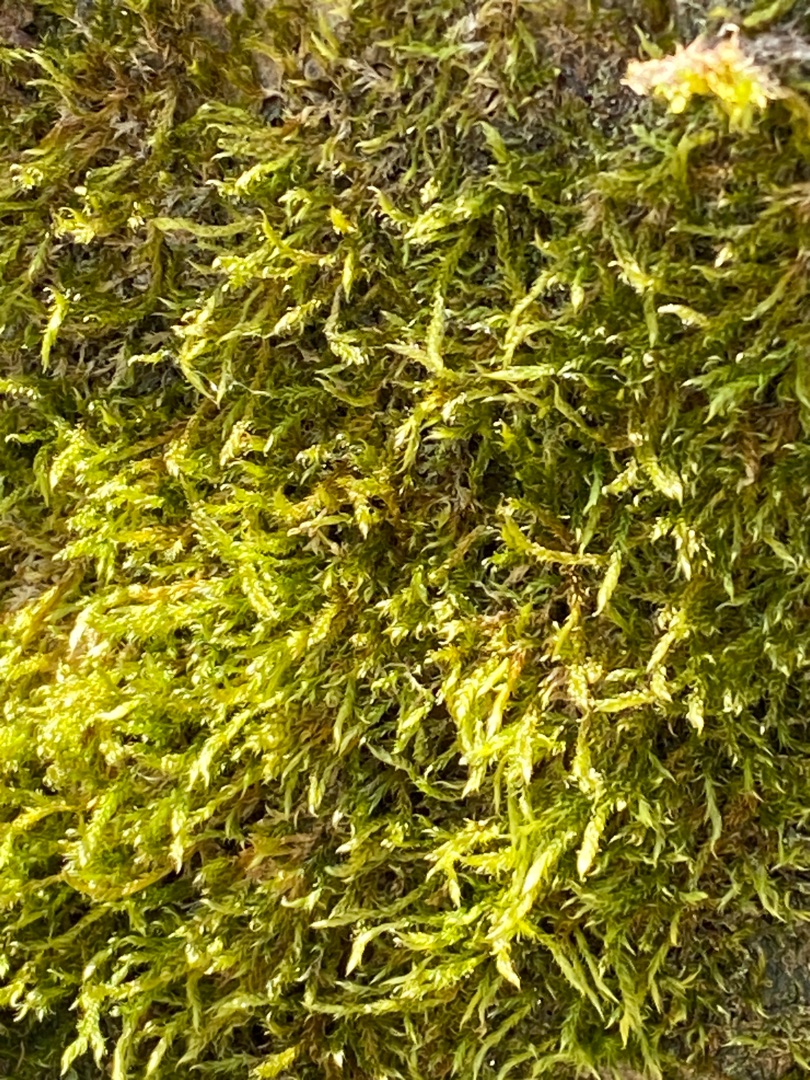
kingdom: Plantae
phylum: Bryophyta
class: Bryopsida
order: Hypnales
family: Hypnaceae
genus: Hypnum
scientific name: Hypnum cupressiforme
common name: Almindelig cypresmos
